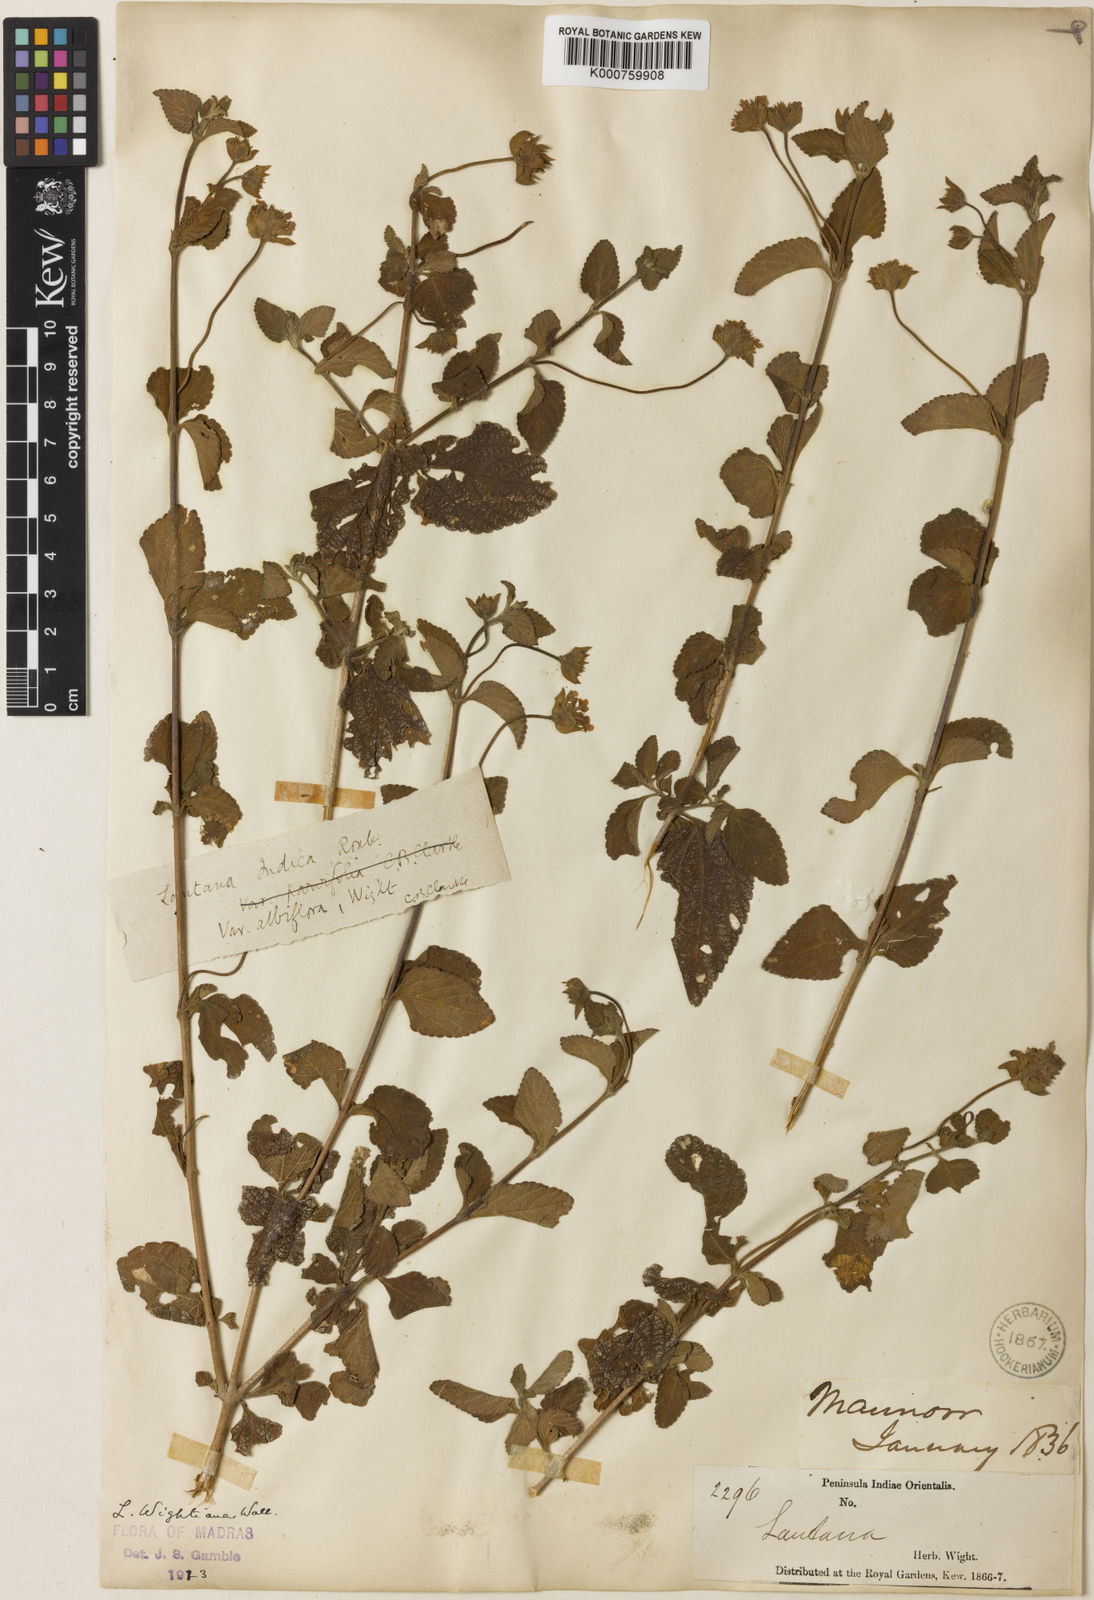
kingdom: Plantae
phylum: Tracheophyta
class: Magnoliopsida
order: Lamiales
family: Verbenaceae
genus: Lantana
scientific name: Lantana indica
